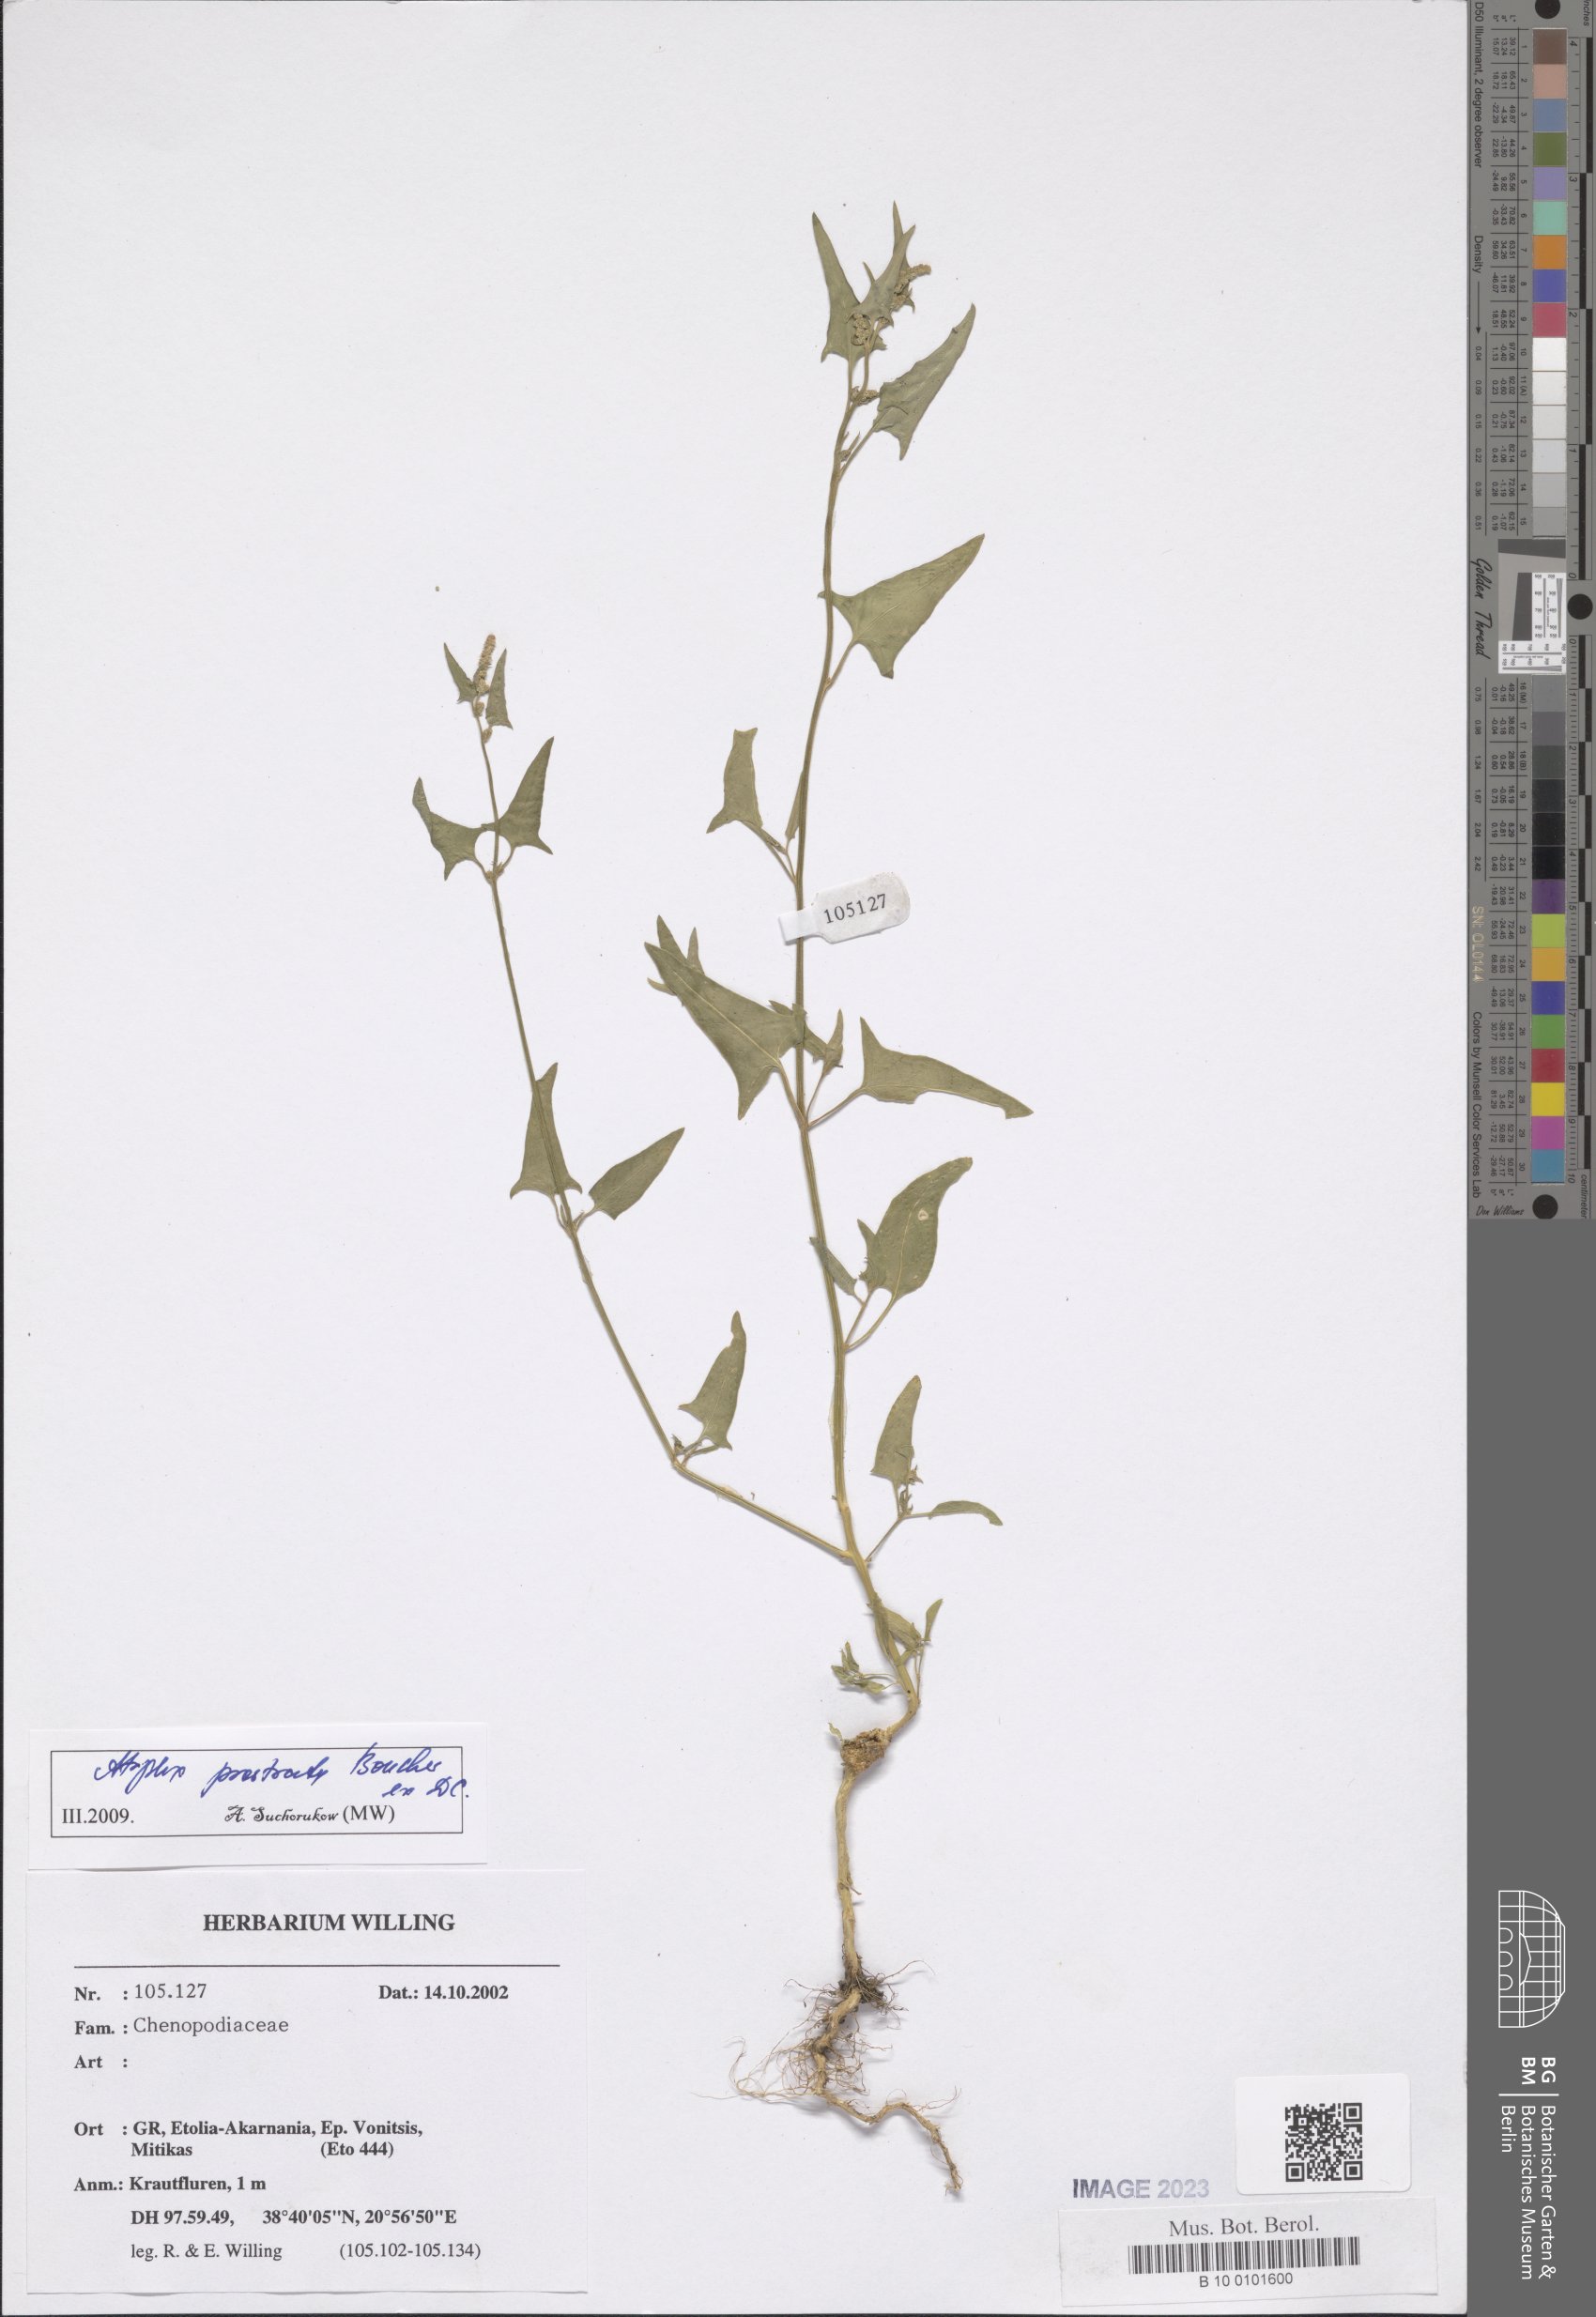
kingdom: Plantae
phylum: Tracheophyta
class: Magnoliopsida
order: Caryophyllales
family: Amaranthaceae
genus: Atriplex
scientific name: Atriplex prostrata
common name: Spear-leaved orache
